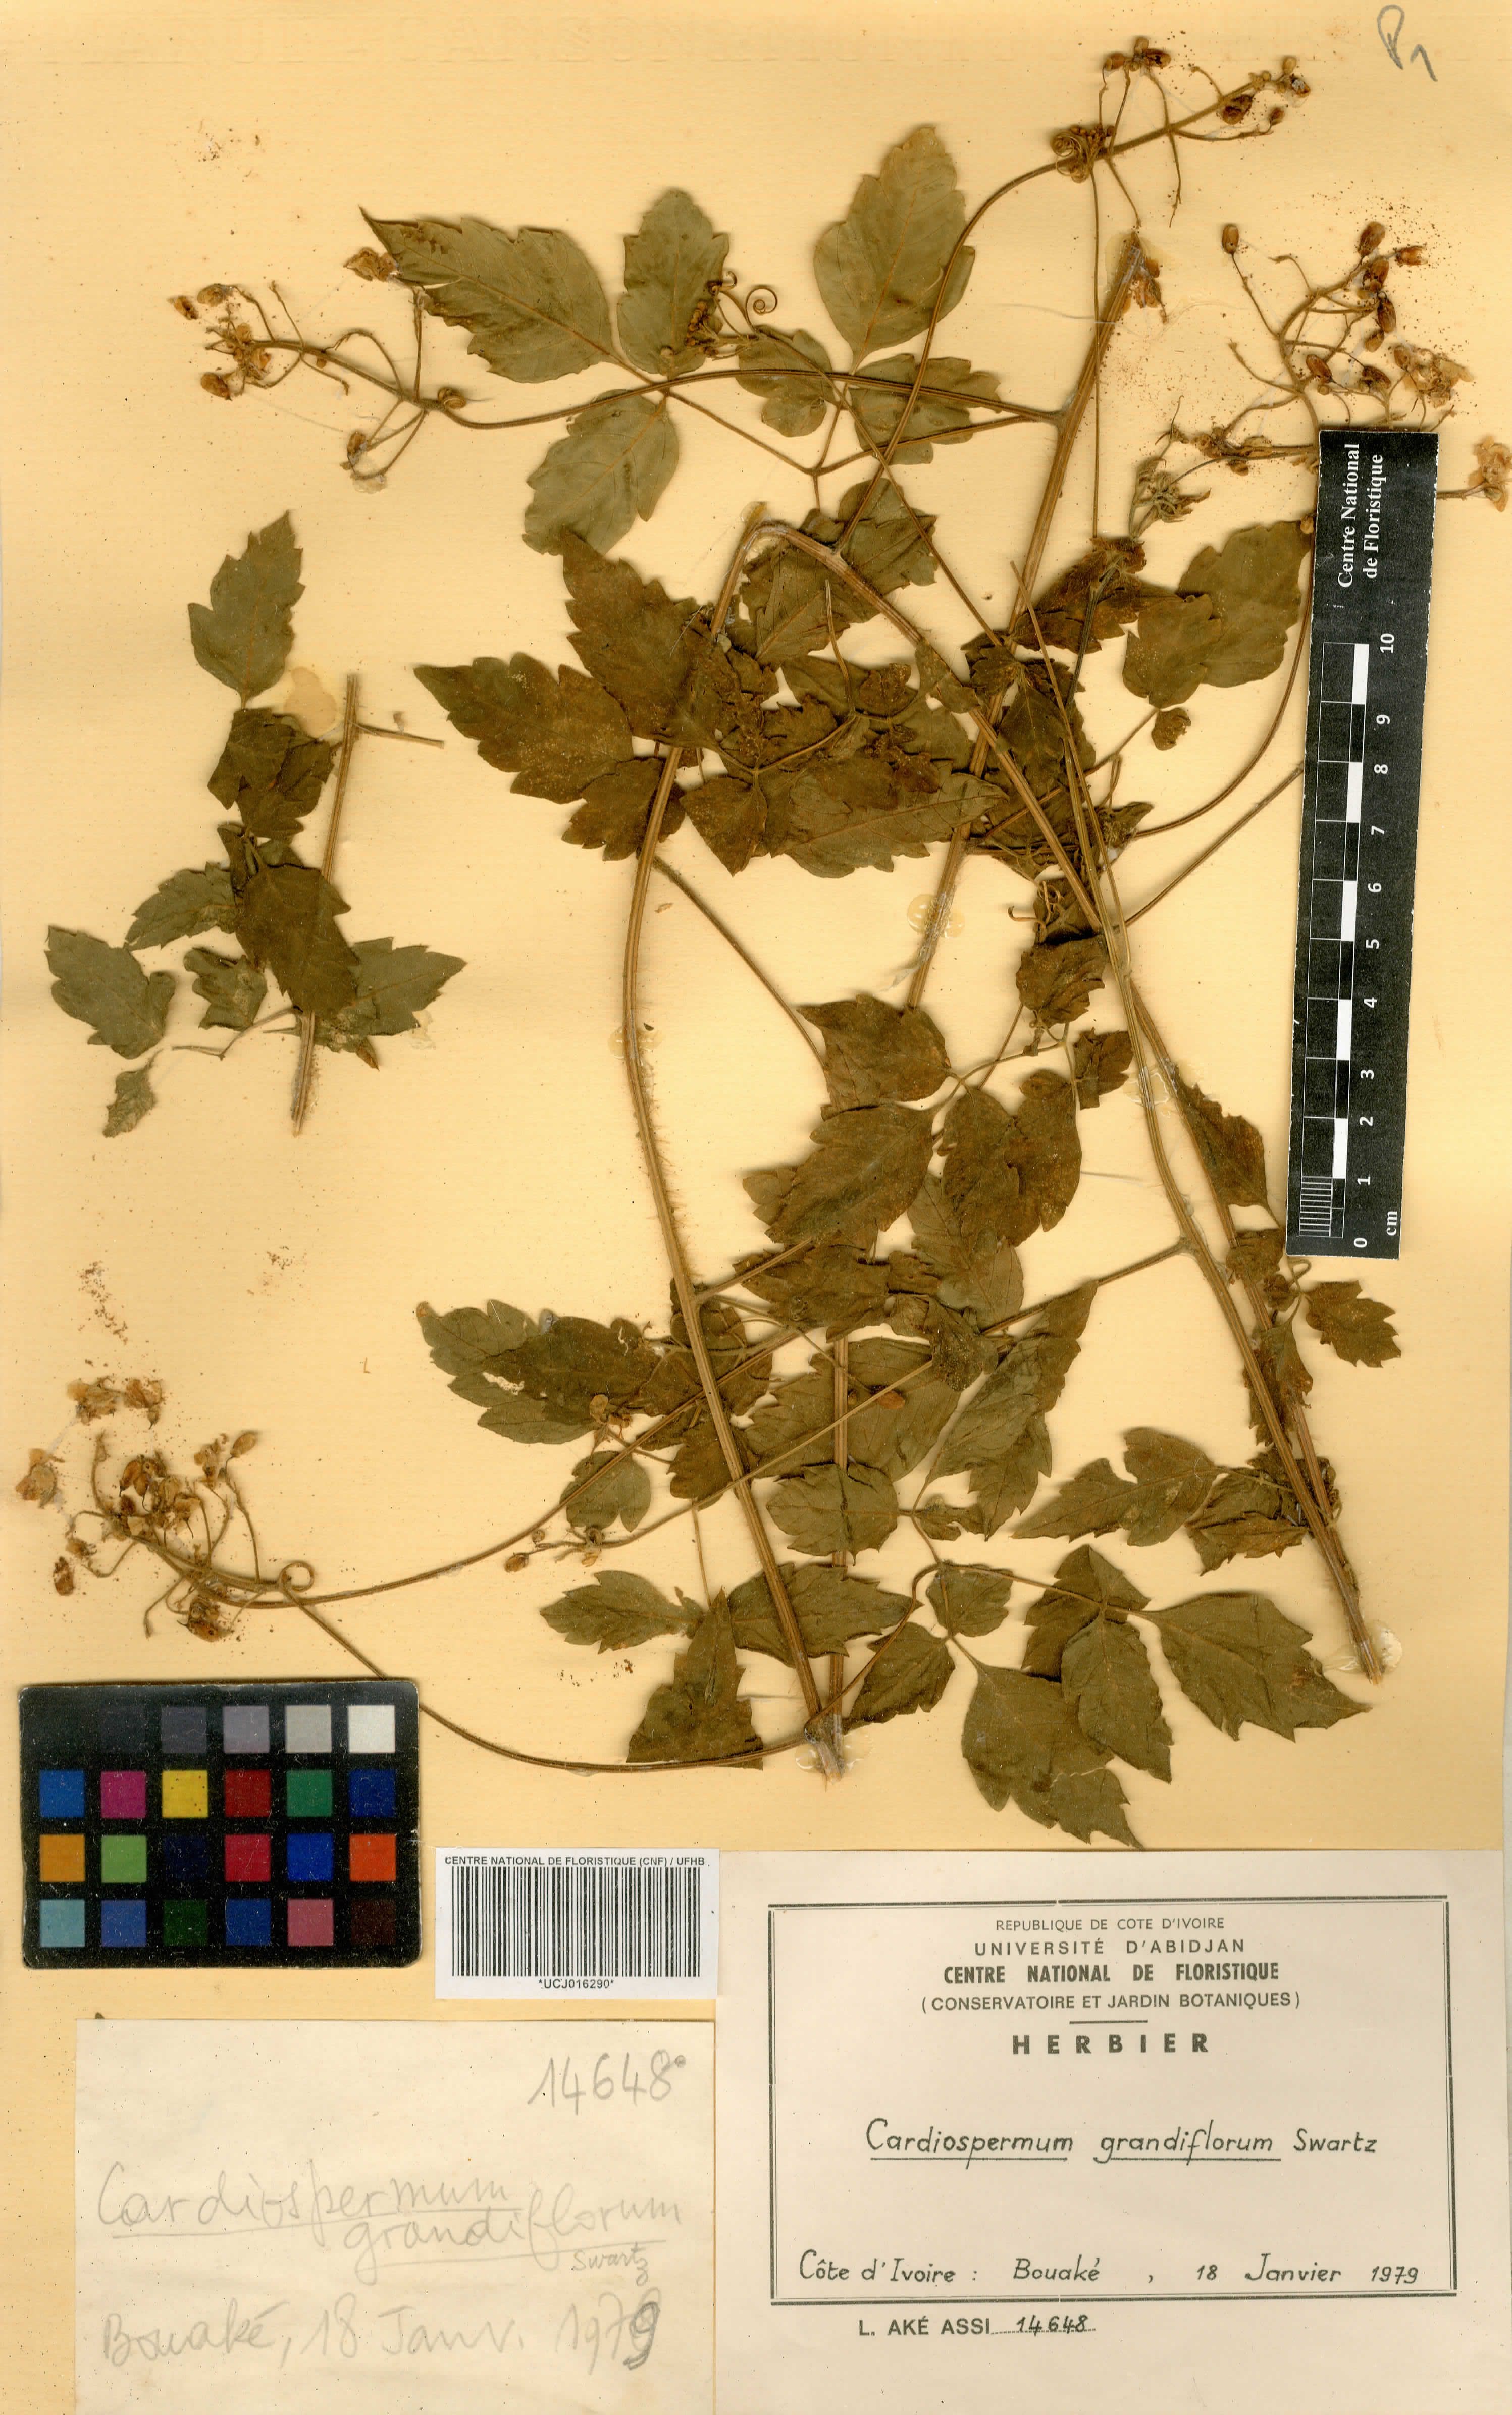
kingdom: Plantae
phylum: Tracheophyta
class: Magnoliopsida
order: Sapindales
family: Sapindaceae
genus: Cardiospermum
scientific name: Cardiospermum grandiflorum
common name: Balloon vine
